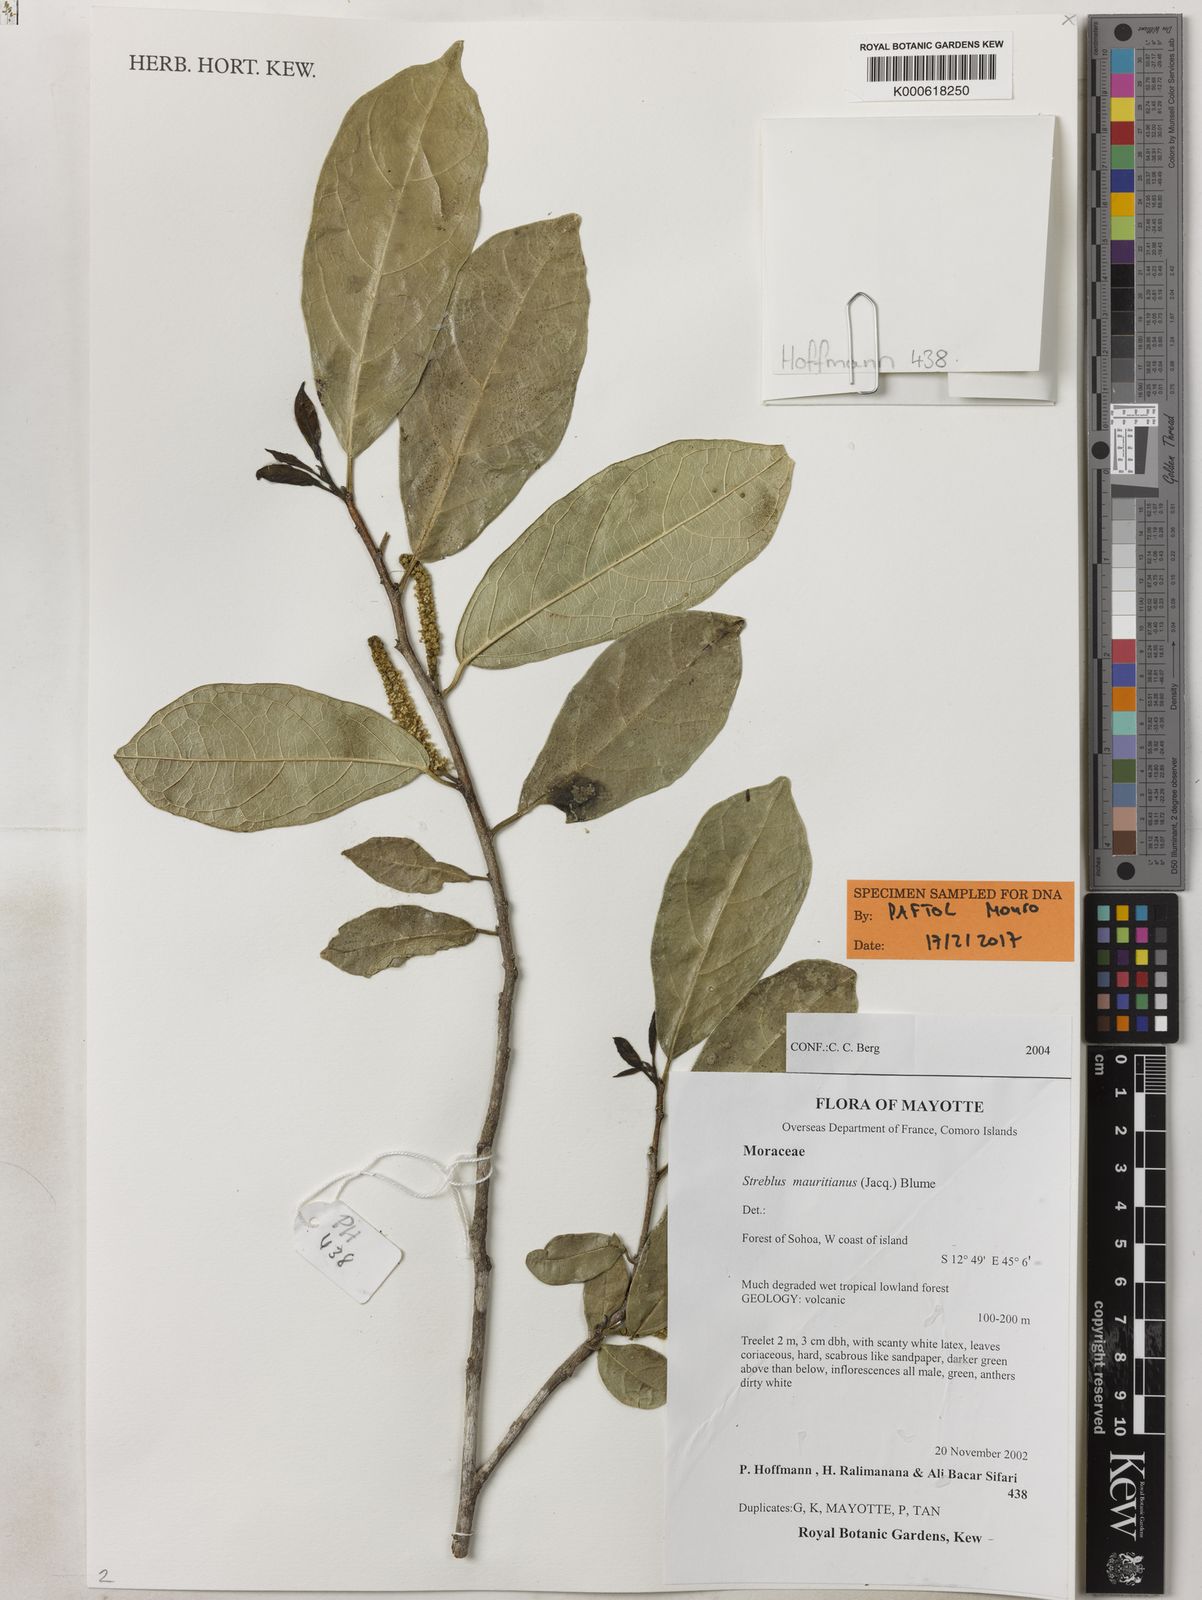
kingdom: Plantae
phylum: Tracheophyta
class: Magnoliopsida
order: Rosales
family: Moraceae
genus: Ampalis
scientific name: Ampalis mauritiana
